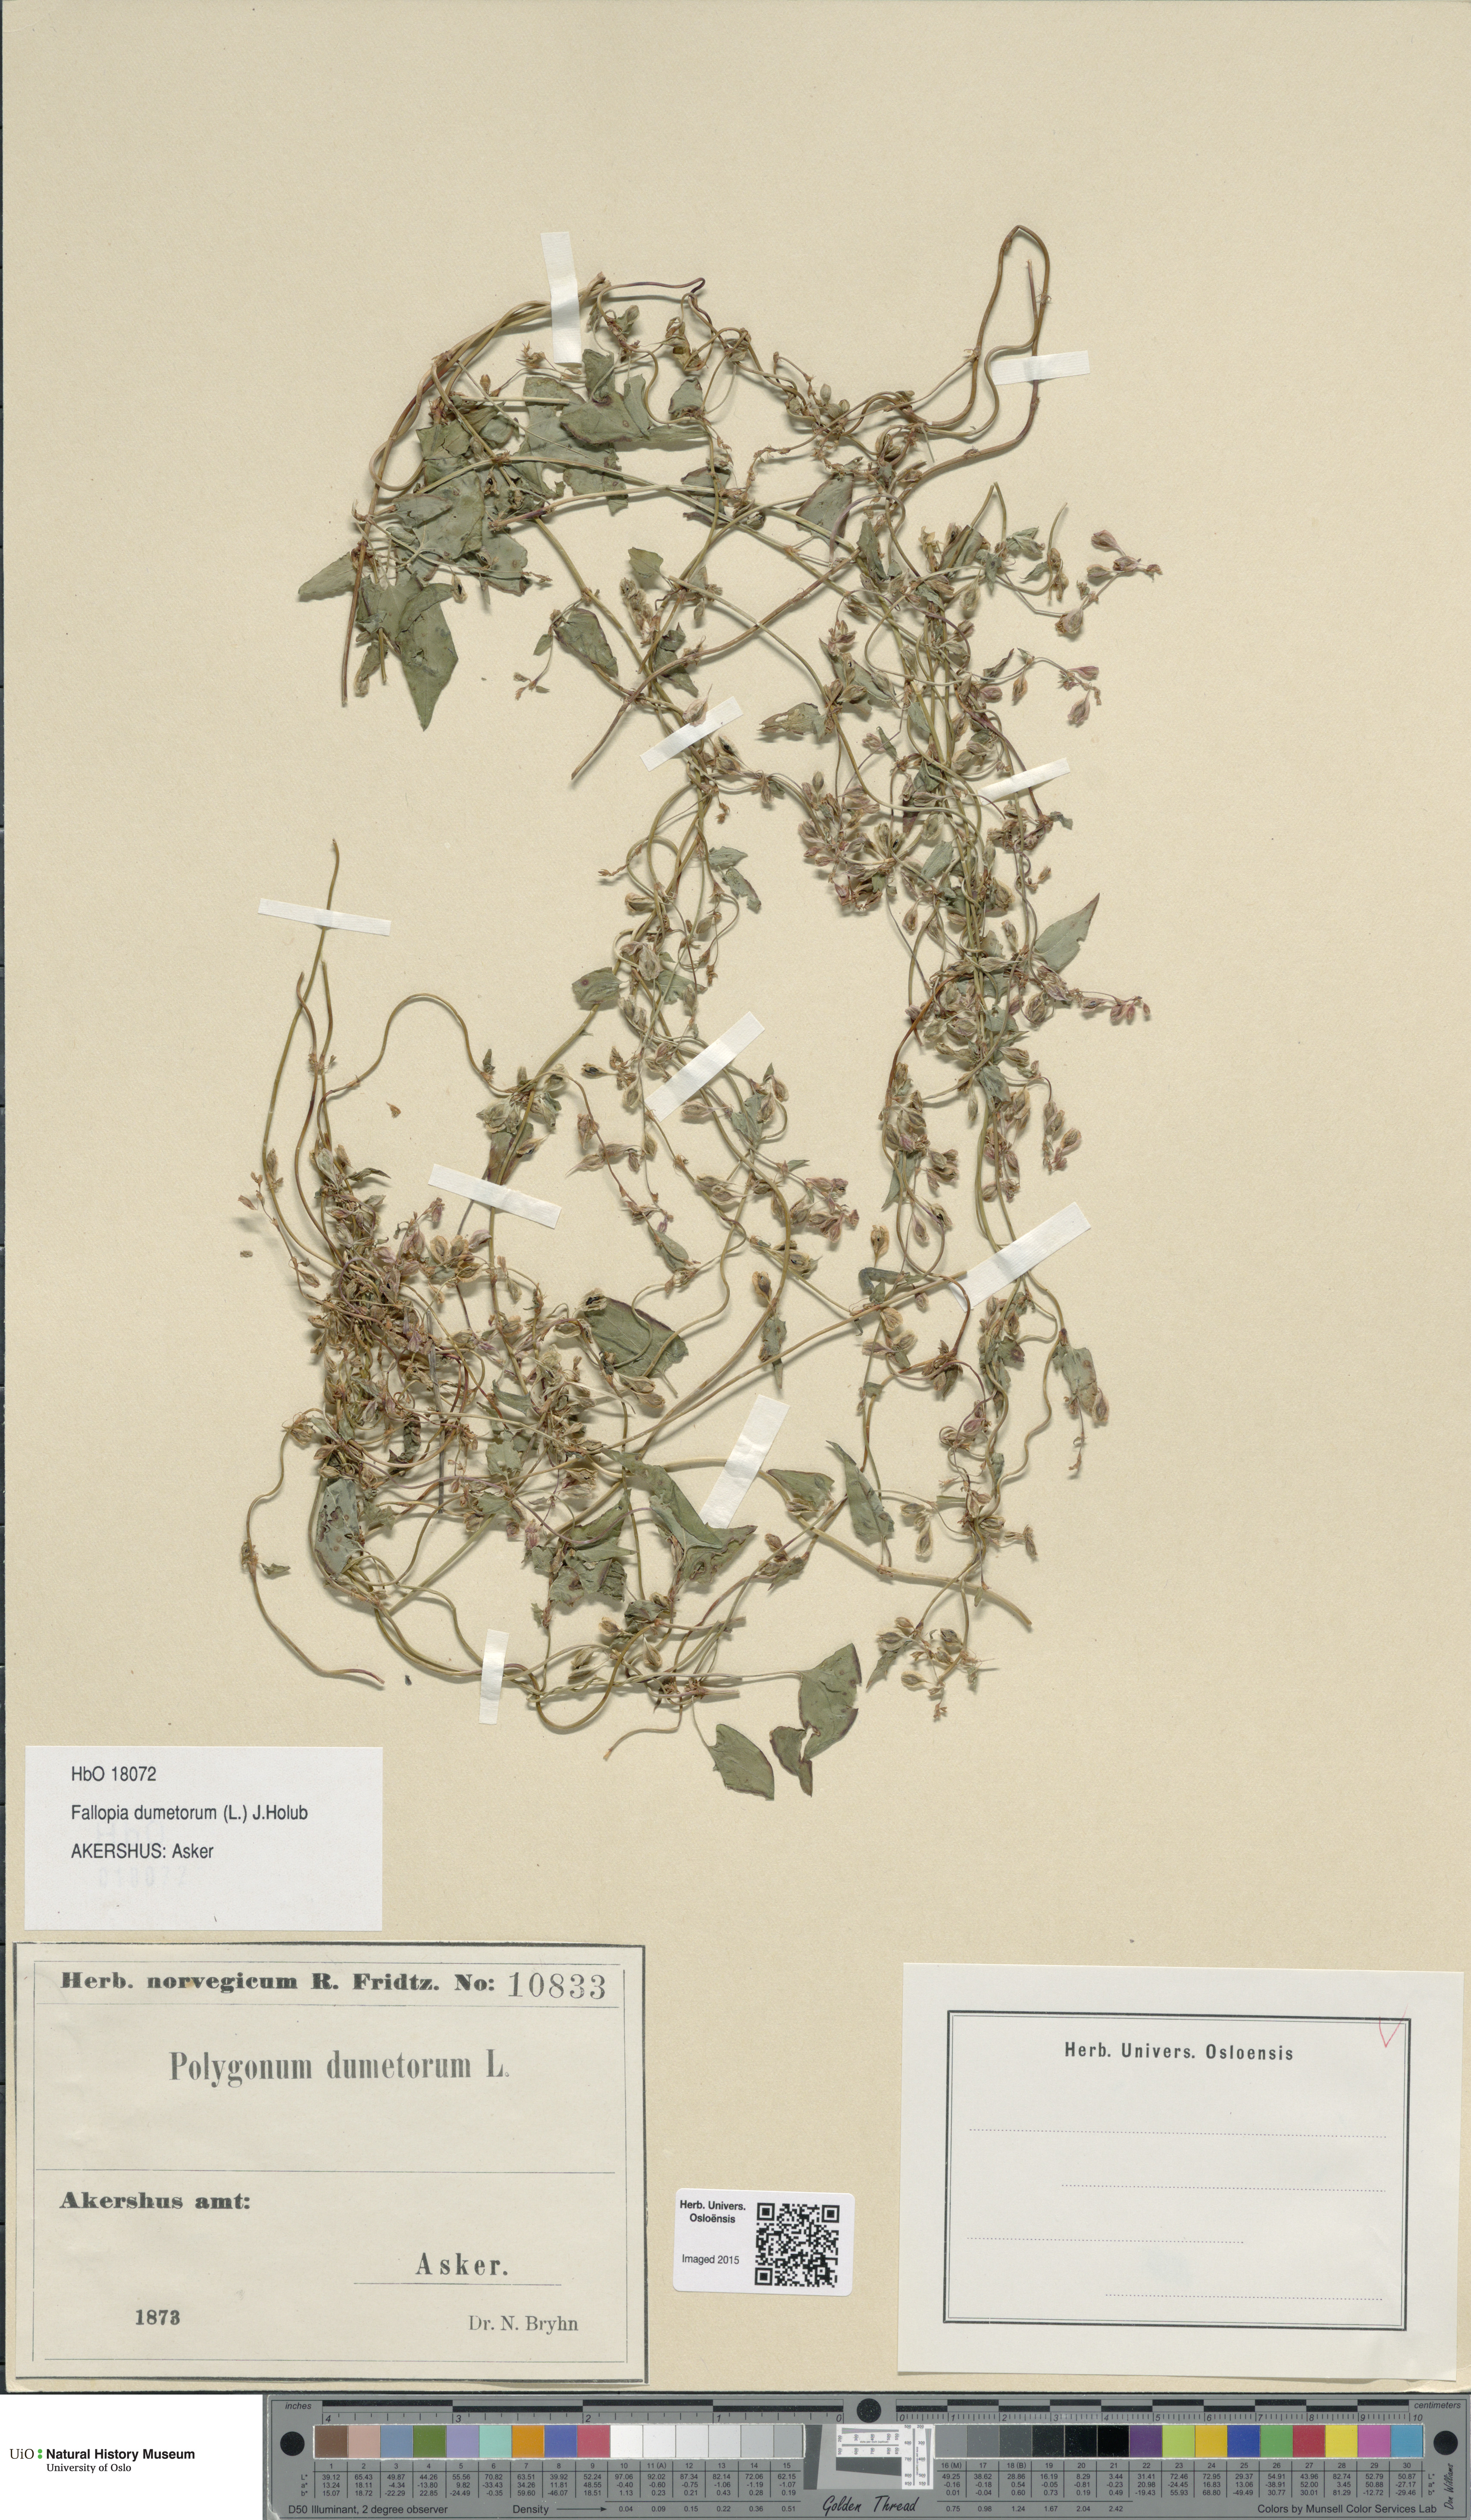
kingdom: Plantae
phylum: Tracheophyta
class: Magnoliopsida
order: Caryophyllales
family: Polygonaceae
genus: Fallopia
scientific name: Fallopia dumetorum
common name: Copse-bindweed
